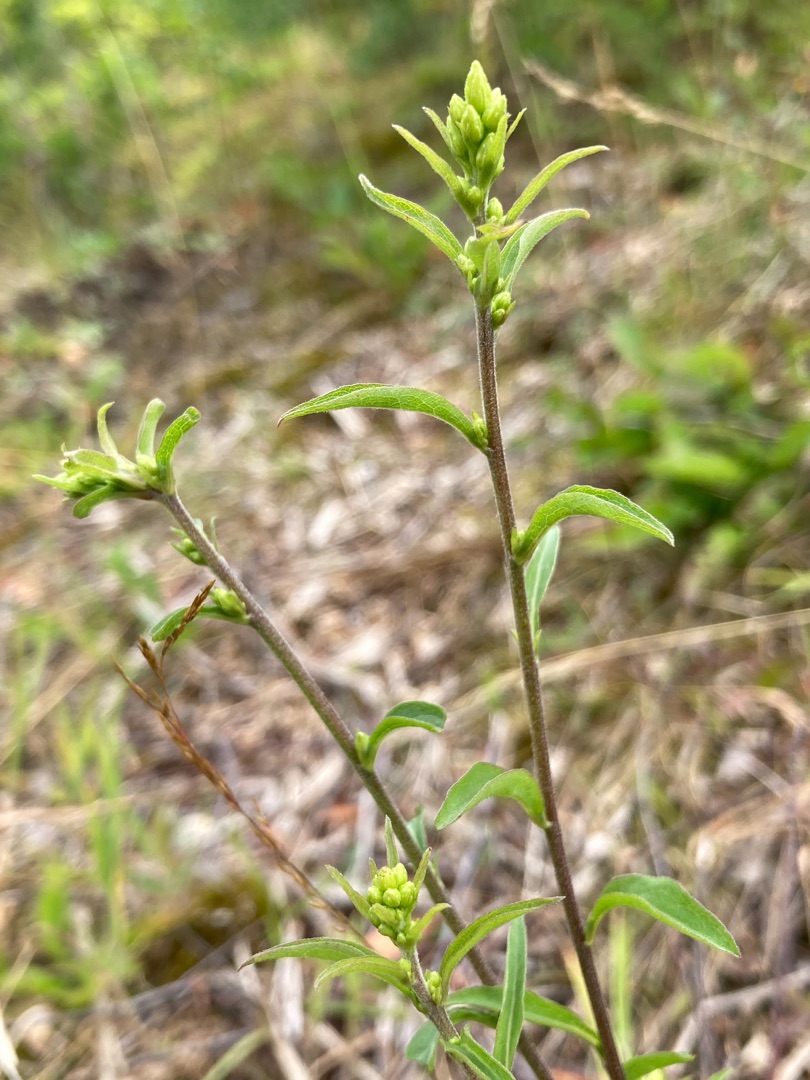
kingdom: Plantae
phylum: Tracheophyta
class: Magnoliopsida
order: Asterales
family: Asteraceae
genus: Solidago
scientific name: Solidago virgaurea
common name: Almindelig gyldenris
